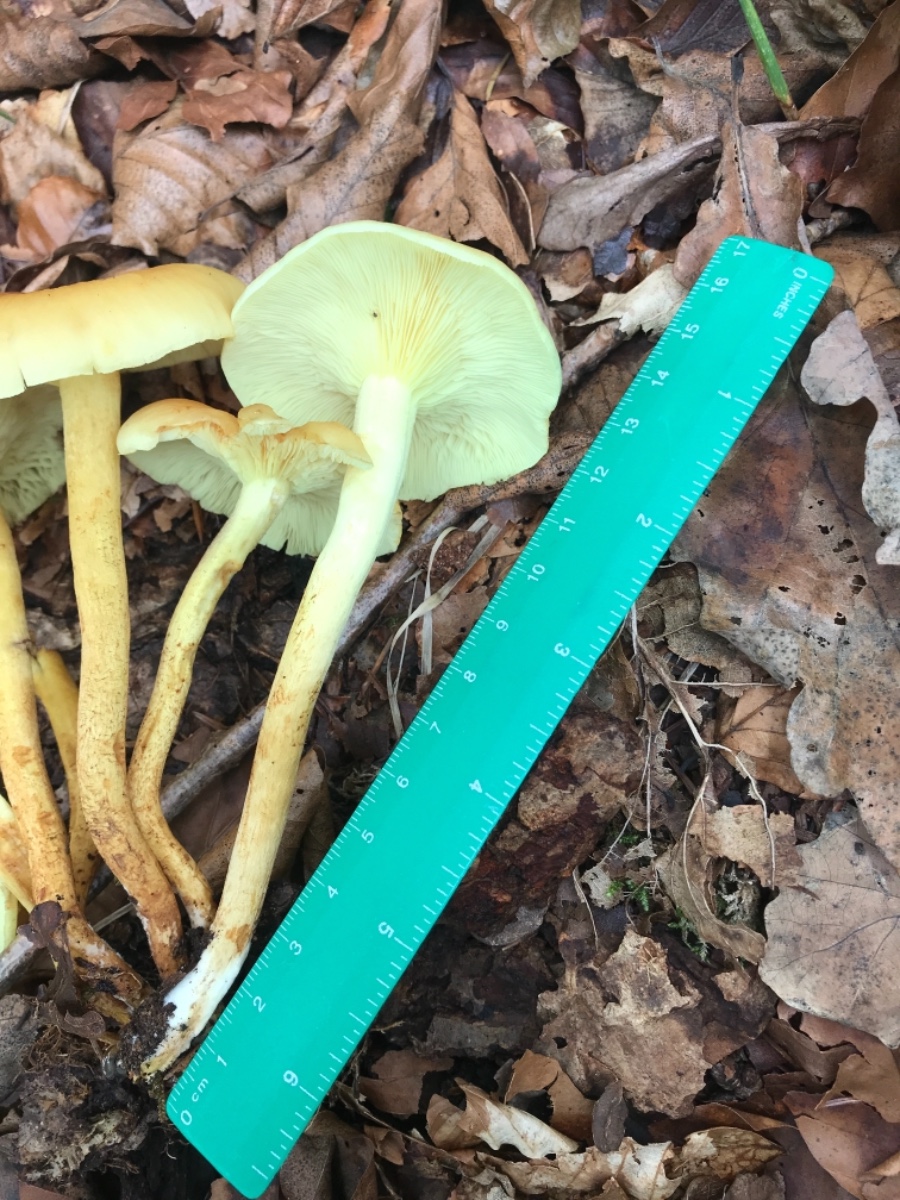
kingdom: Fungi
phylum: Basidiomycota
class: Agaricomycetes
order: Agaricales
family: Strophariaceae
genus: Hypholoma
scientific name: Hypholoma fasciculare
